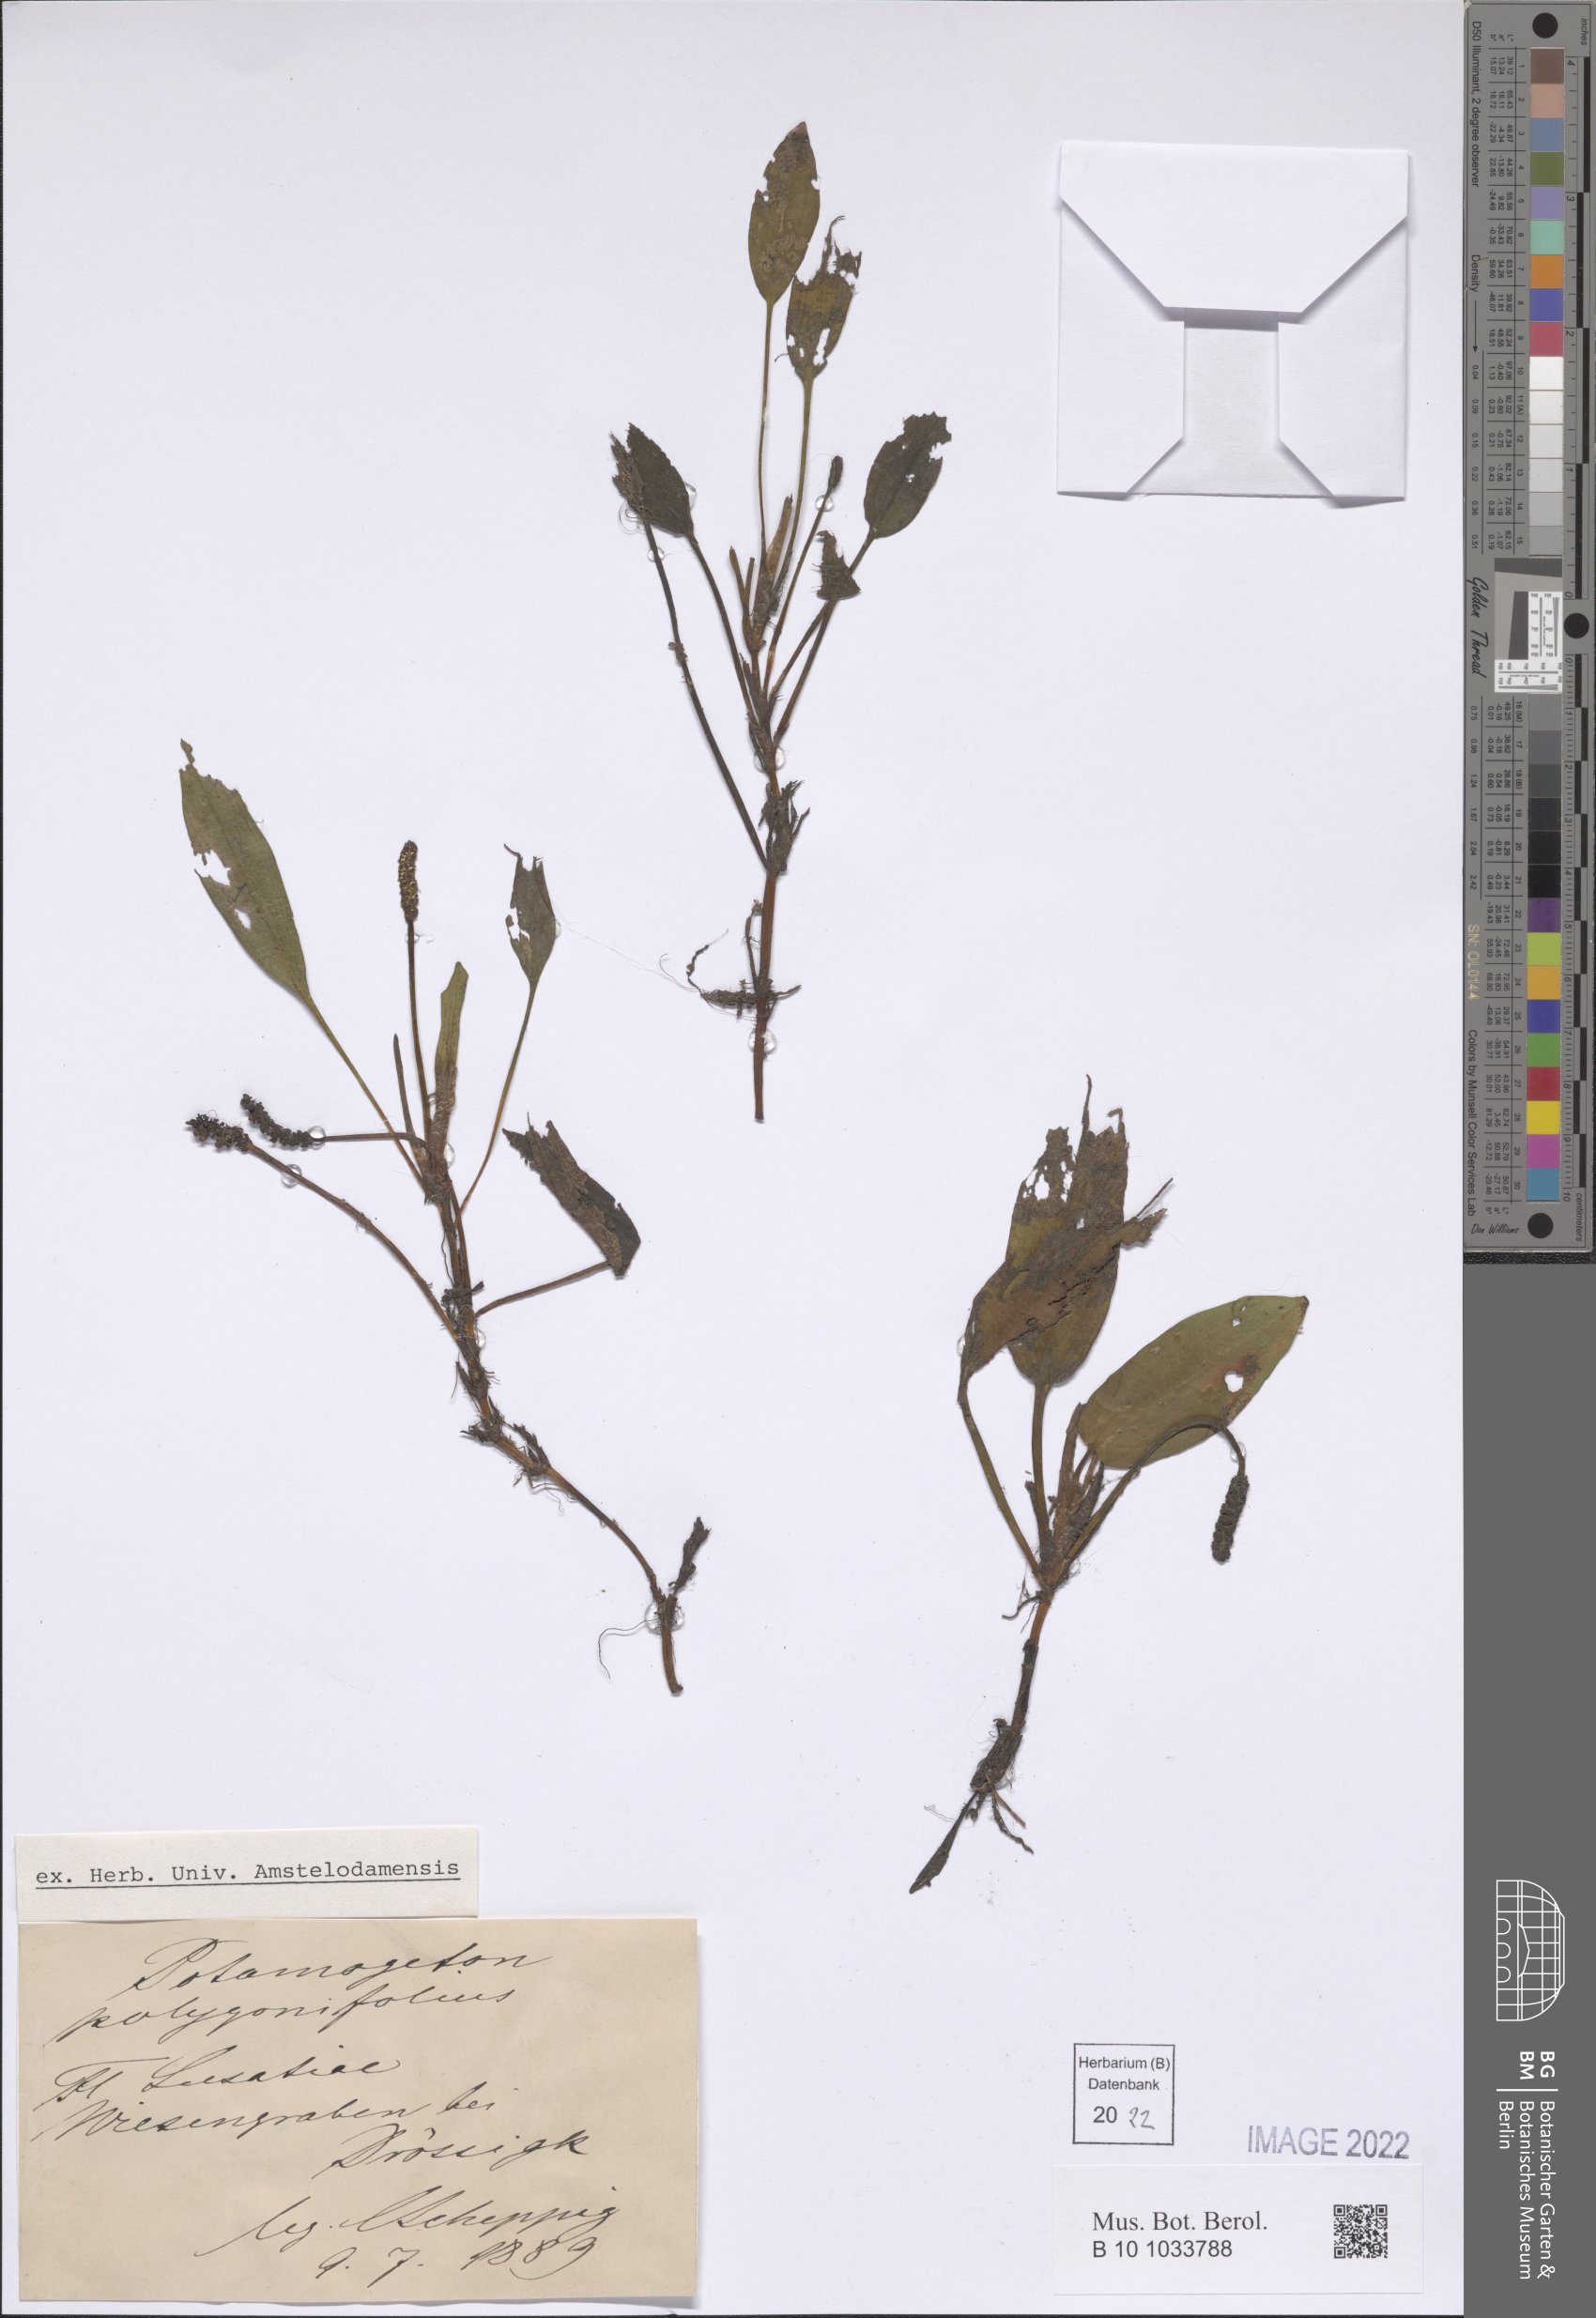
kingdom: Plantae
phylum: Tracheophyta
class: Liliopsida
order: Alismatales
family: Potamogetonaceae
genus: Potamogeton
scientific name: Potamogeton polygonifolius
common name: Bog pondweed
